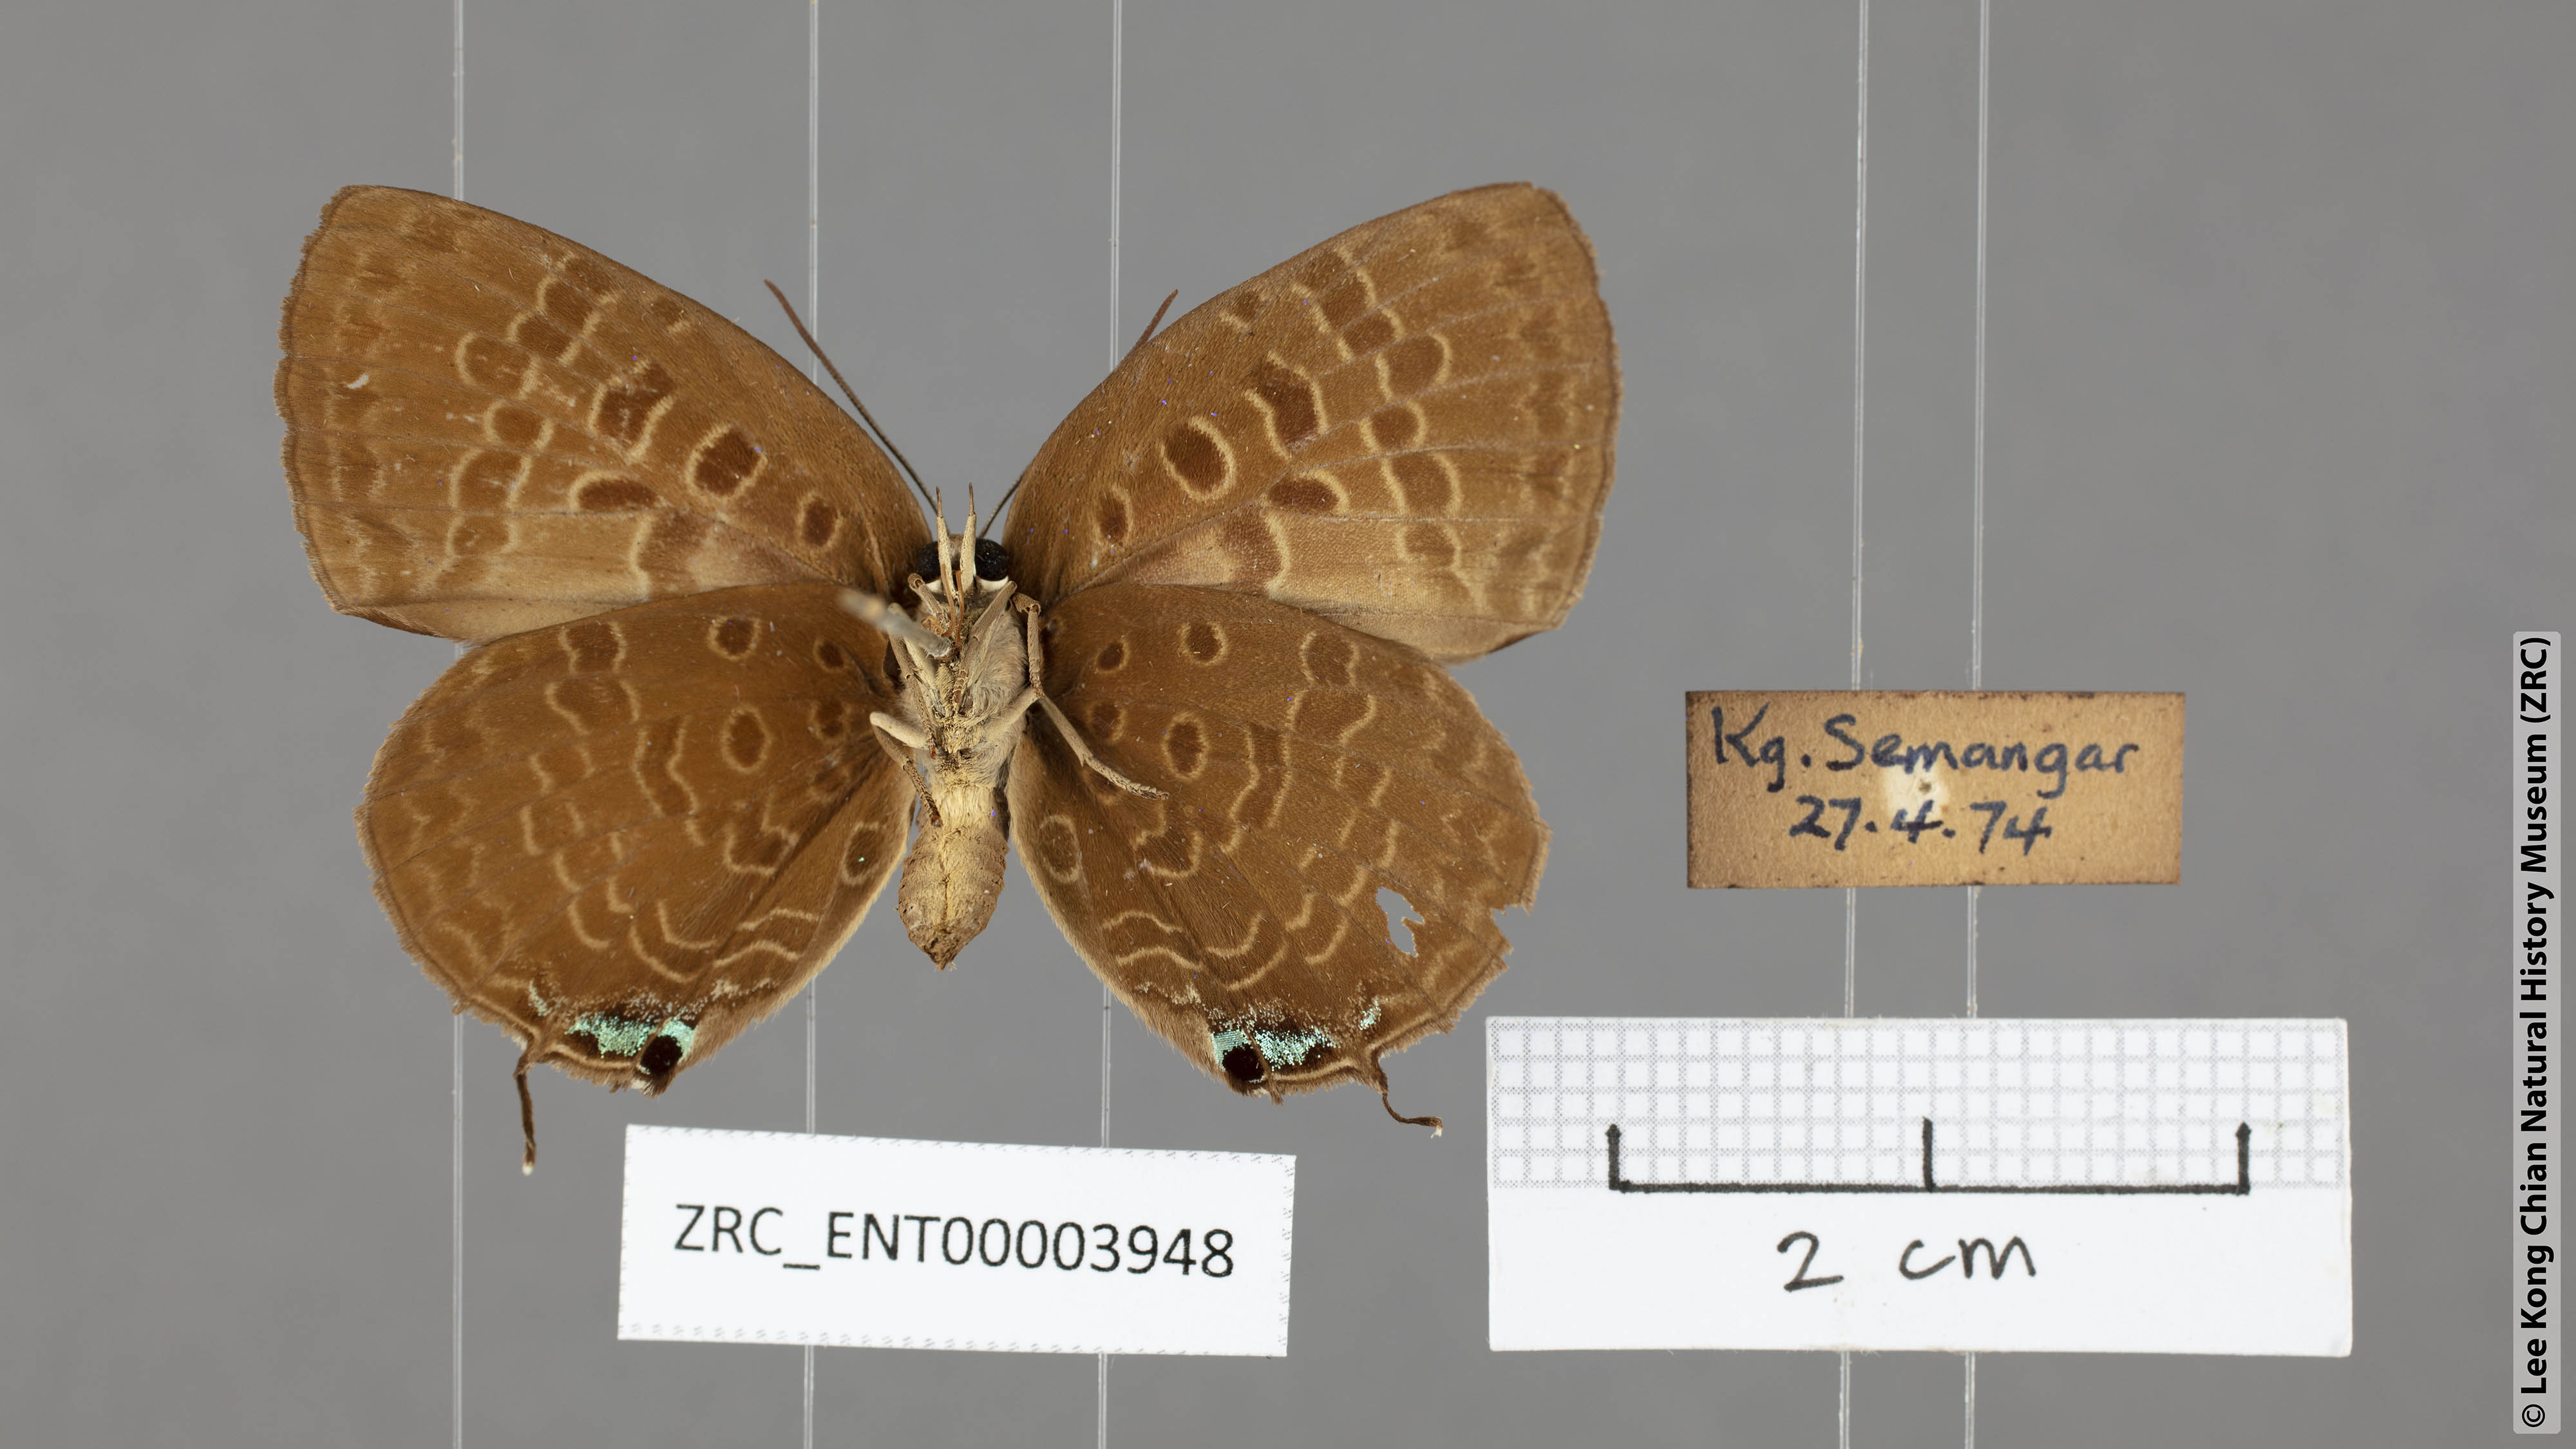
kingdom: Animalia
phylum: Arthropoda
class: Insecta
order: Lepidoptera
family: Lycaenidae
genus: Arhopala
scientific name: Arhopala horsfieldi
